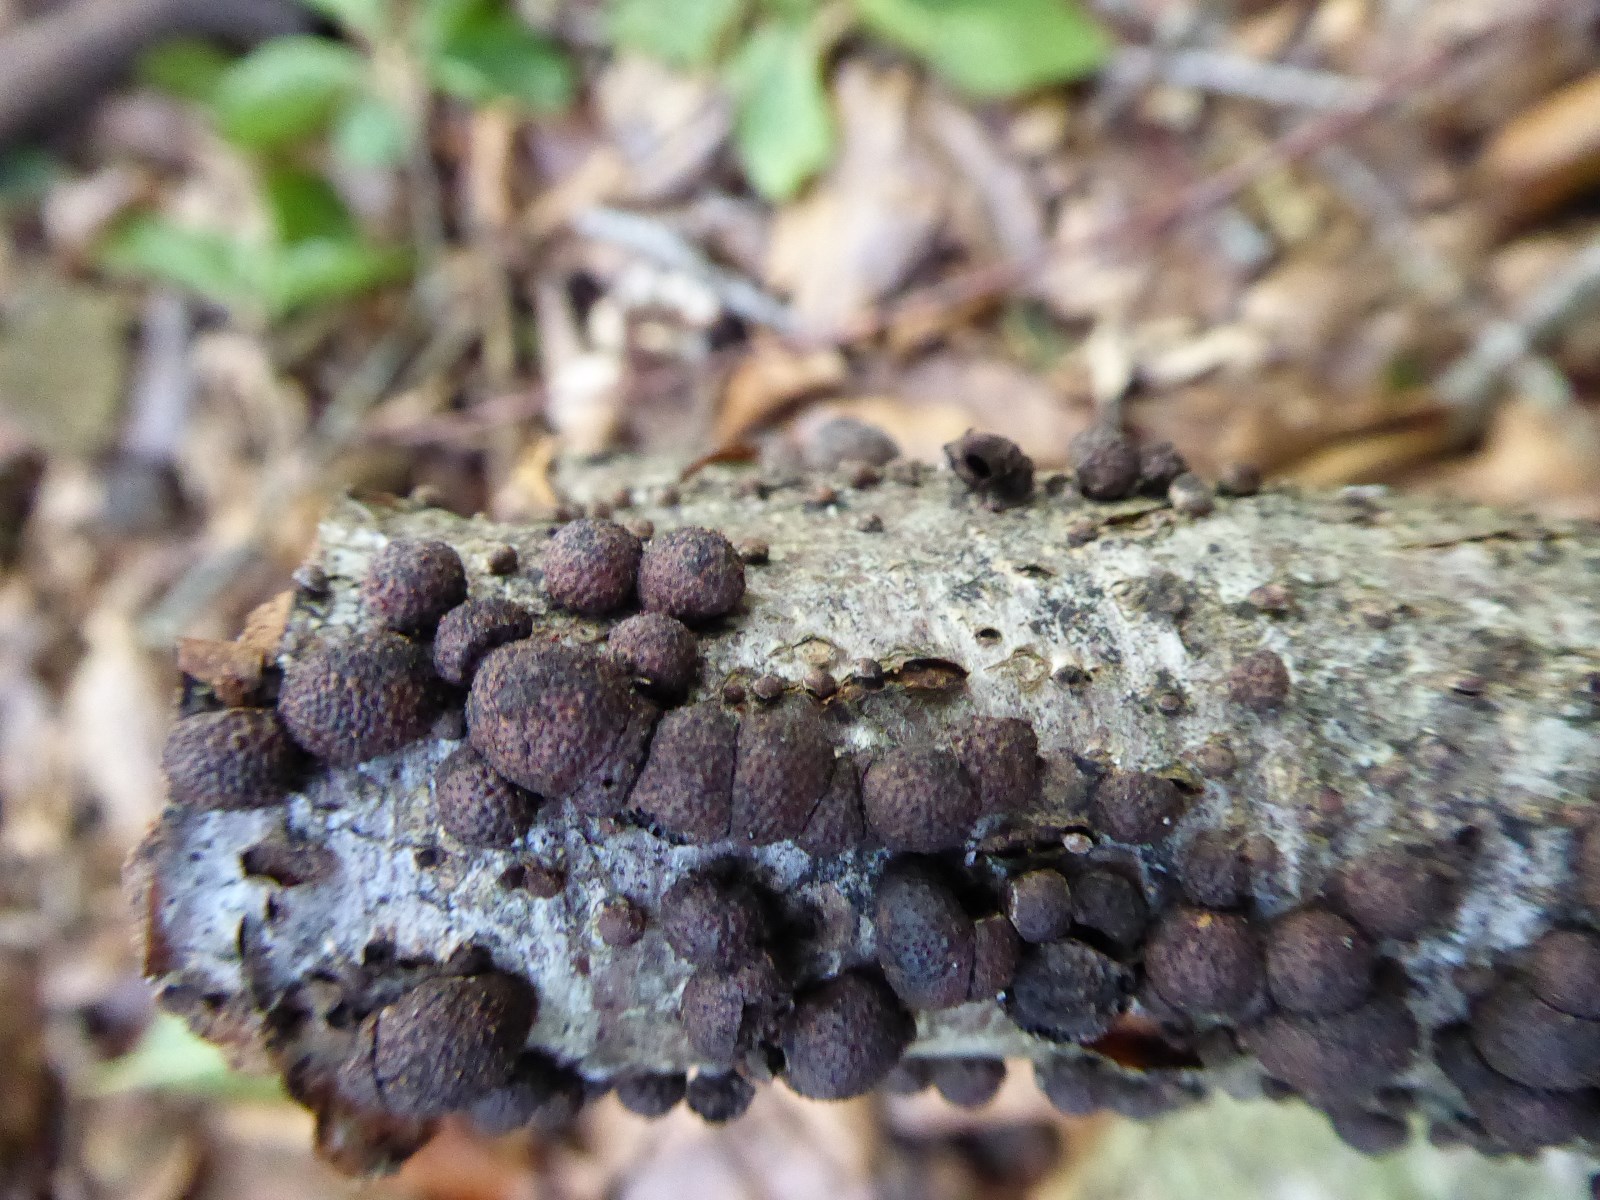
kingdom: Fungi
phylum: Ascomycota
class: Sordariomycetes
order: Xylariales
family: Hypoxylaceae
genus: Hypoxylon
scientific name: Hypoxylon fragiforme
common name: kuljordbær
